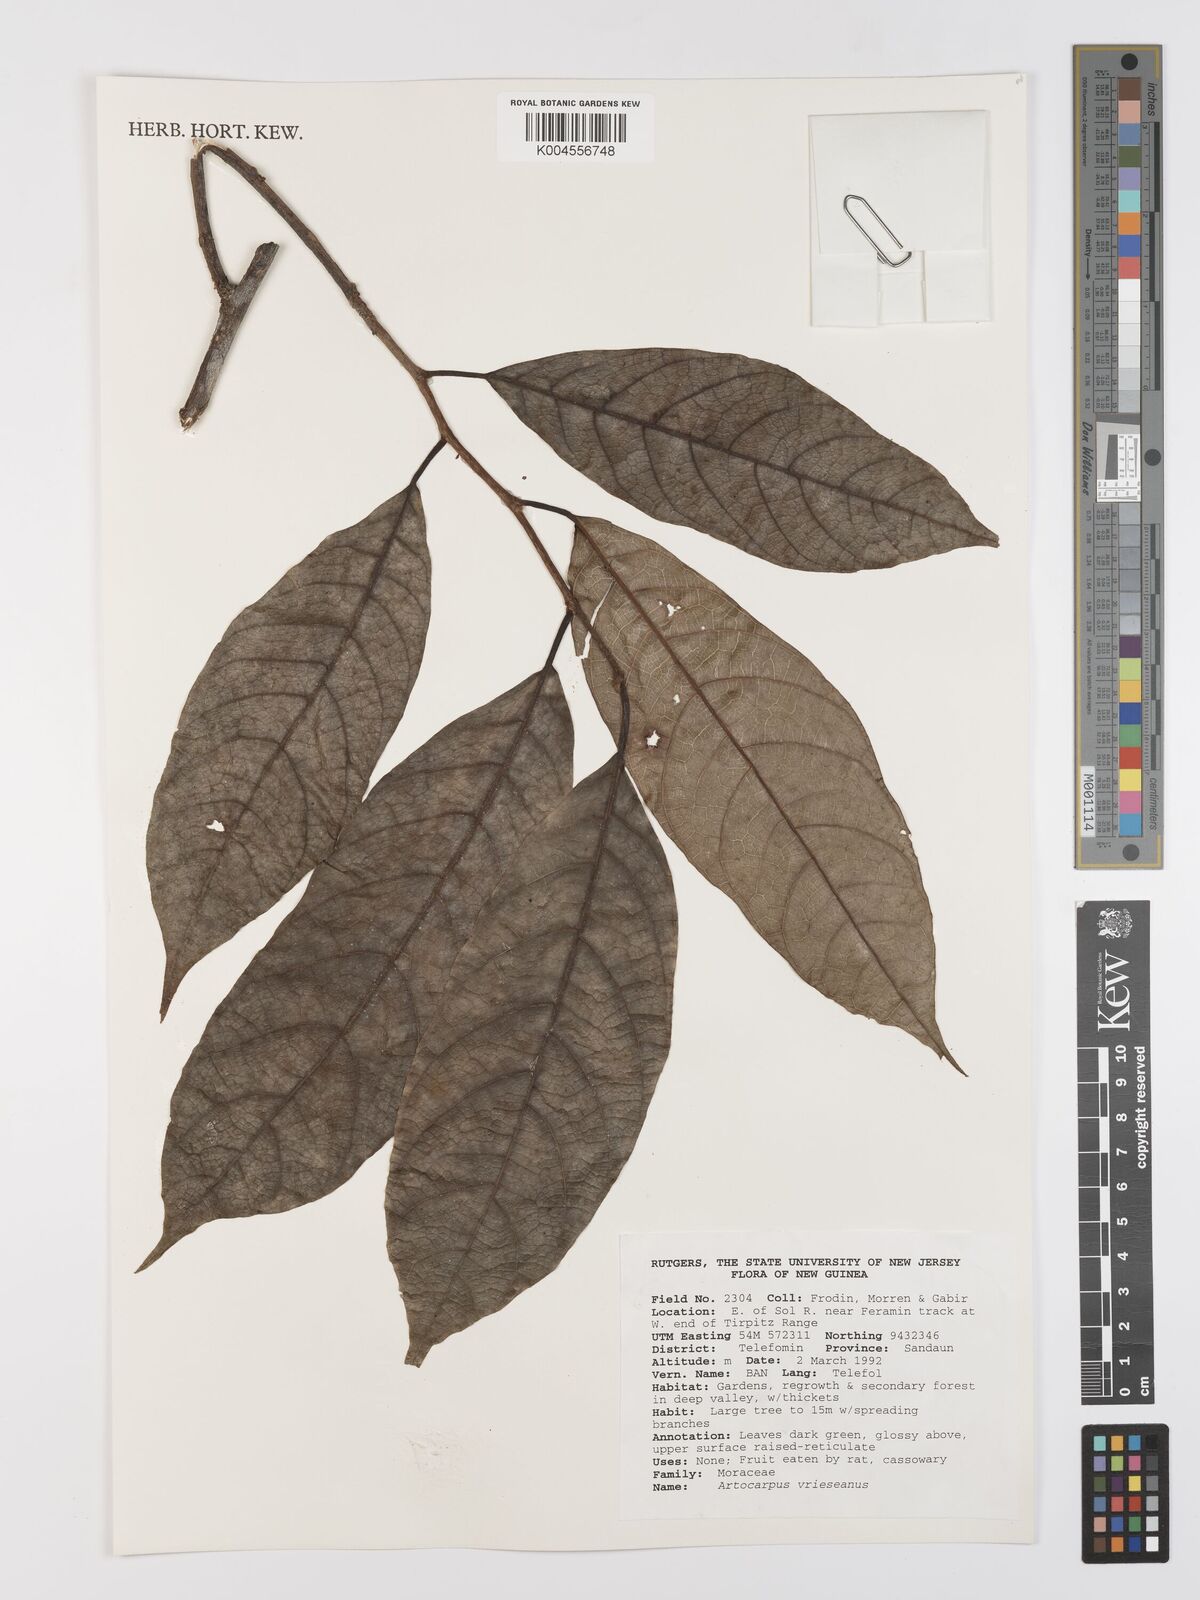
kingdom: Plantae
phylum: Tracheophyta
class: Magnoliopsida
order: Rosales
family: Moraceae
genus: Artocarpus
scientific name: Artocarpus vrieseanus
